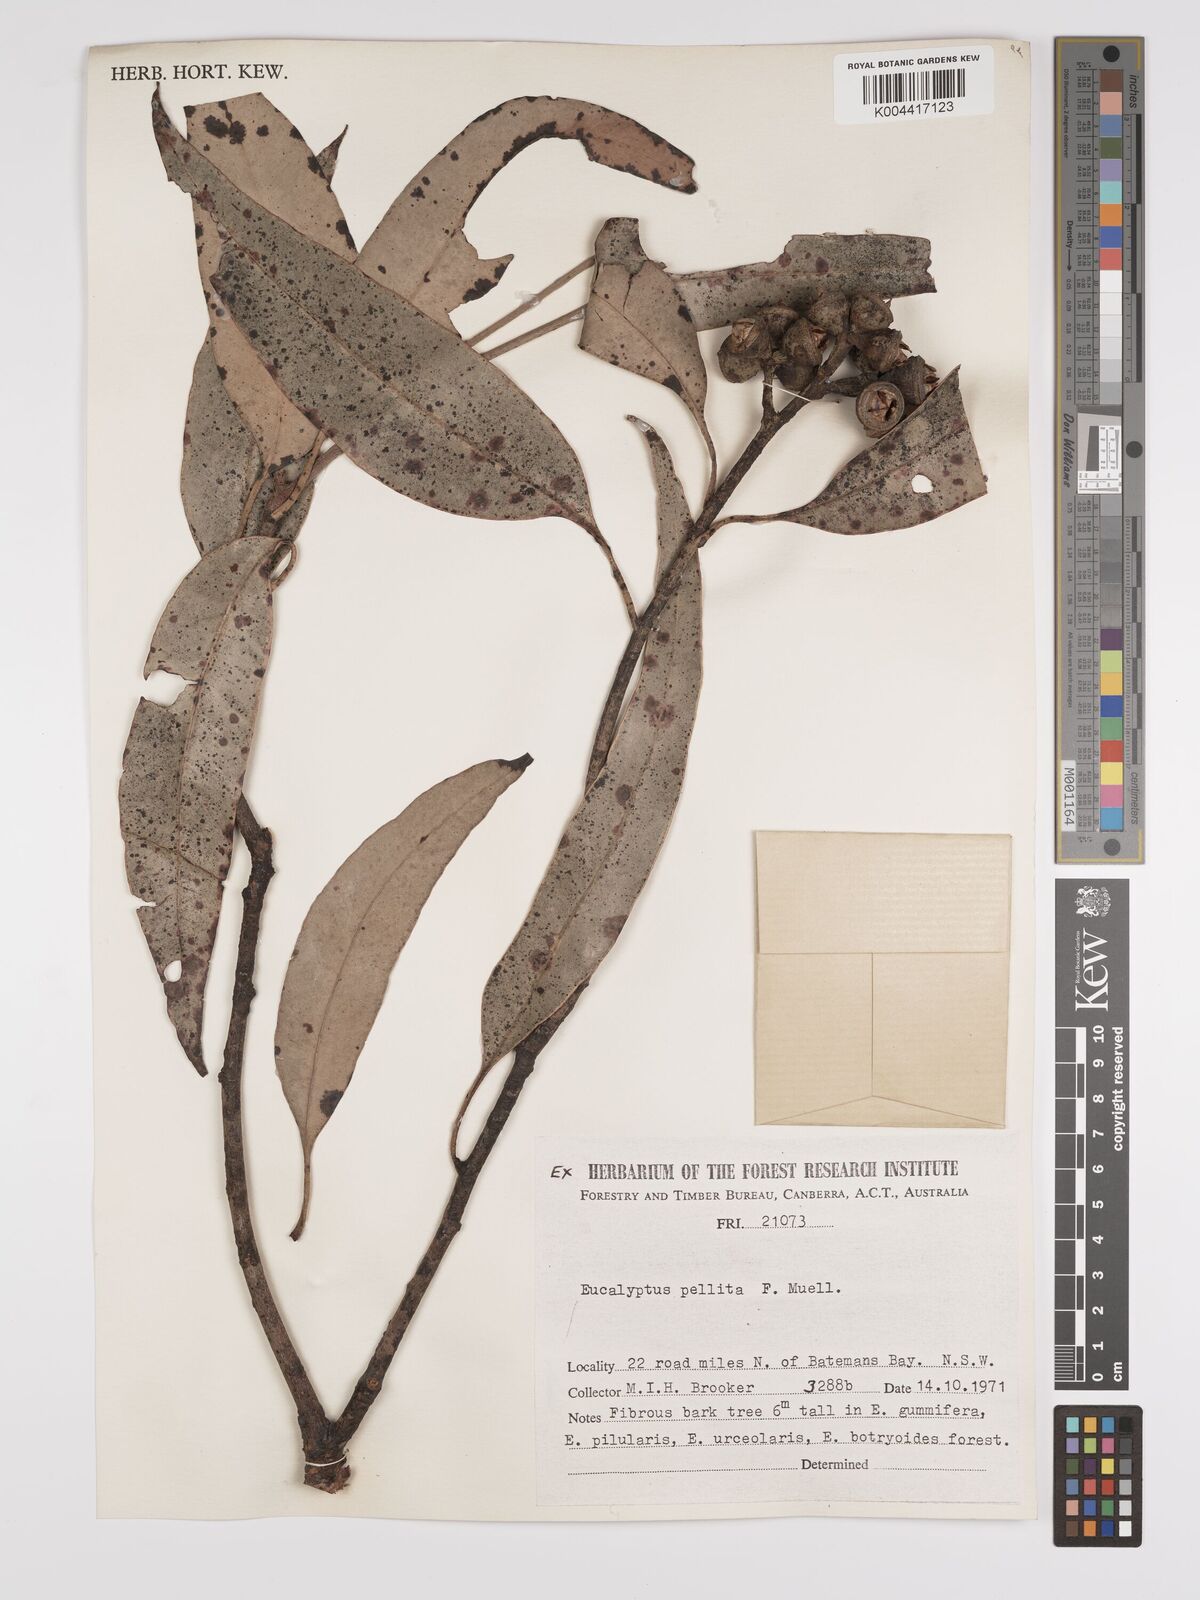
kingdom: Plantae
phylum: Tracheophyta
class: Magnoliopsida
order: Myrtales
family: Myrtaceae
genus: Eucalyptus
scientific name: Eucalyptus pellita
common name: Large-fruited-red-mahogany
